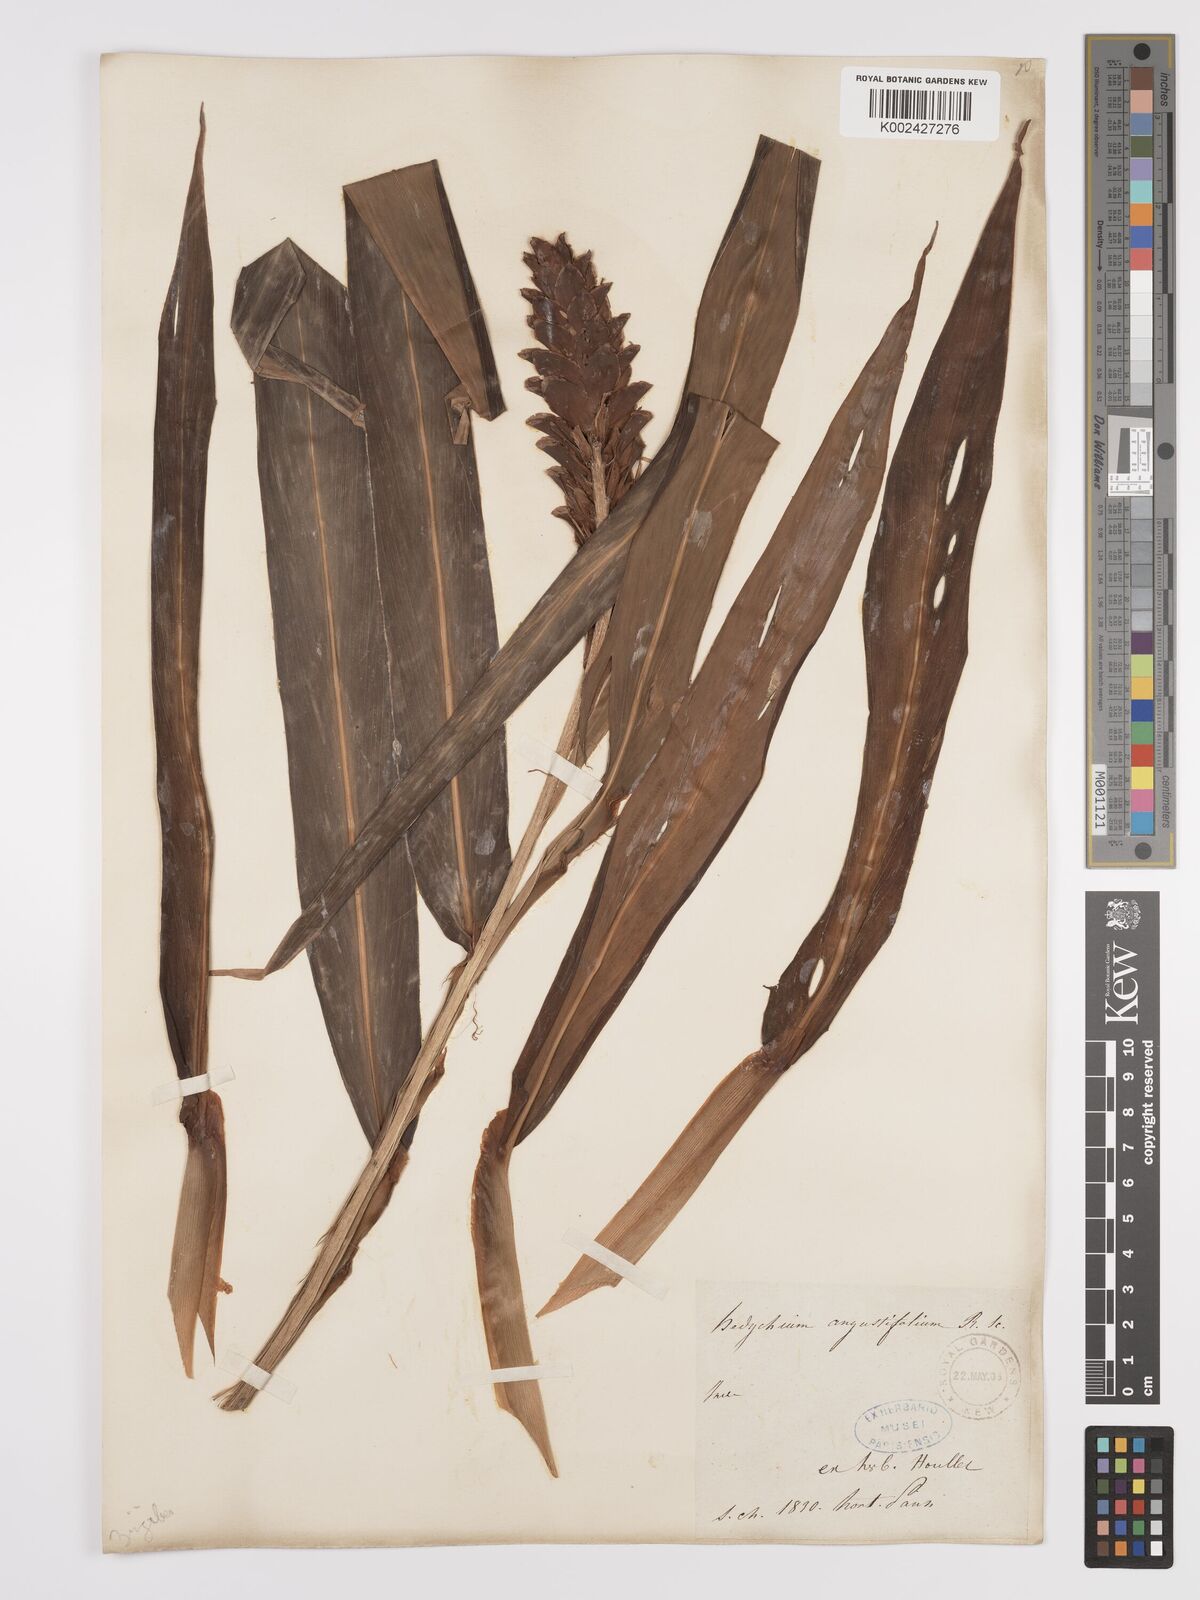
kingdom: Plantae
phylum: Tracheophyta
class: Liliopsida
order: Zingiberales
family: Zingiberaceae
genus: Hedychium
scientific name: Hedychium coccineum
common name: Red ginger-lily
